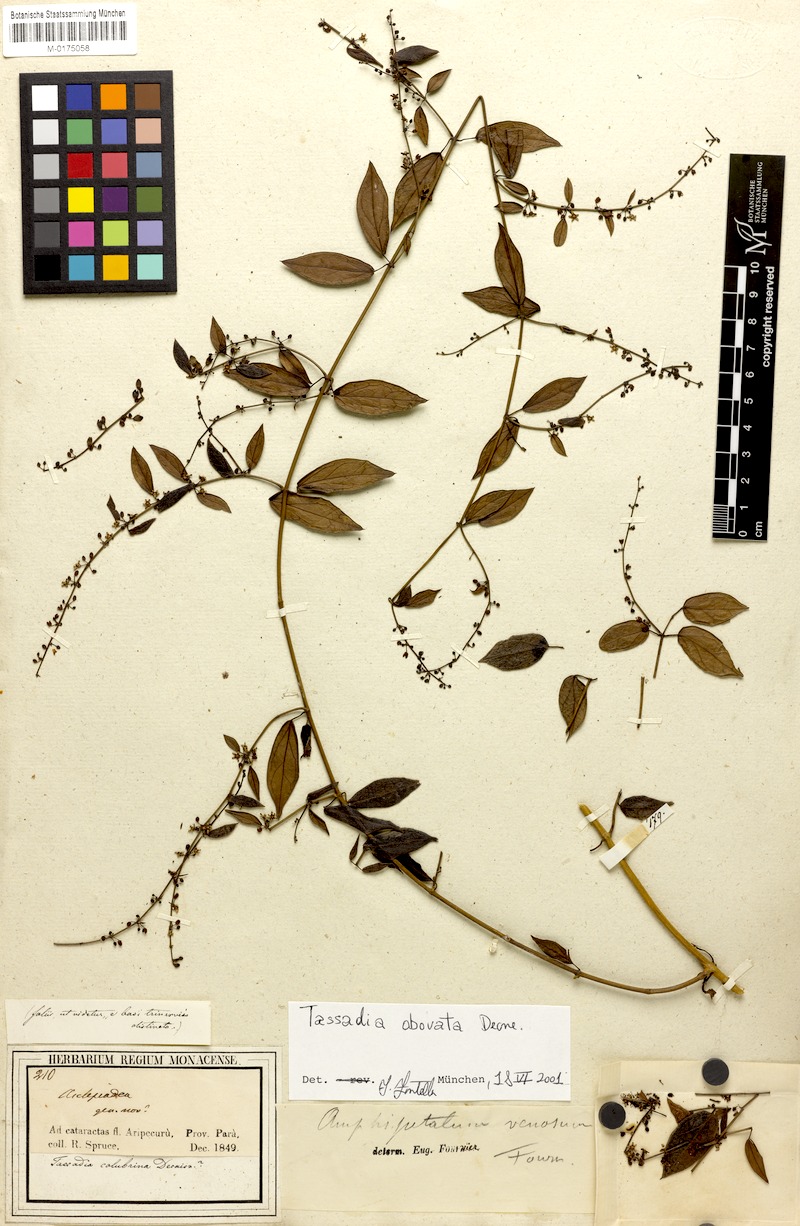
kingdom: Plantae
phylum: Tracheophyta
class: Magnoliopsida
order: Gentianales
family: Apocynaceae
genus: Tassadia
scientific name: Tassadia obovata
